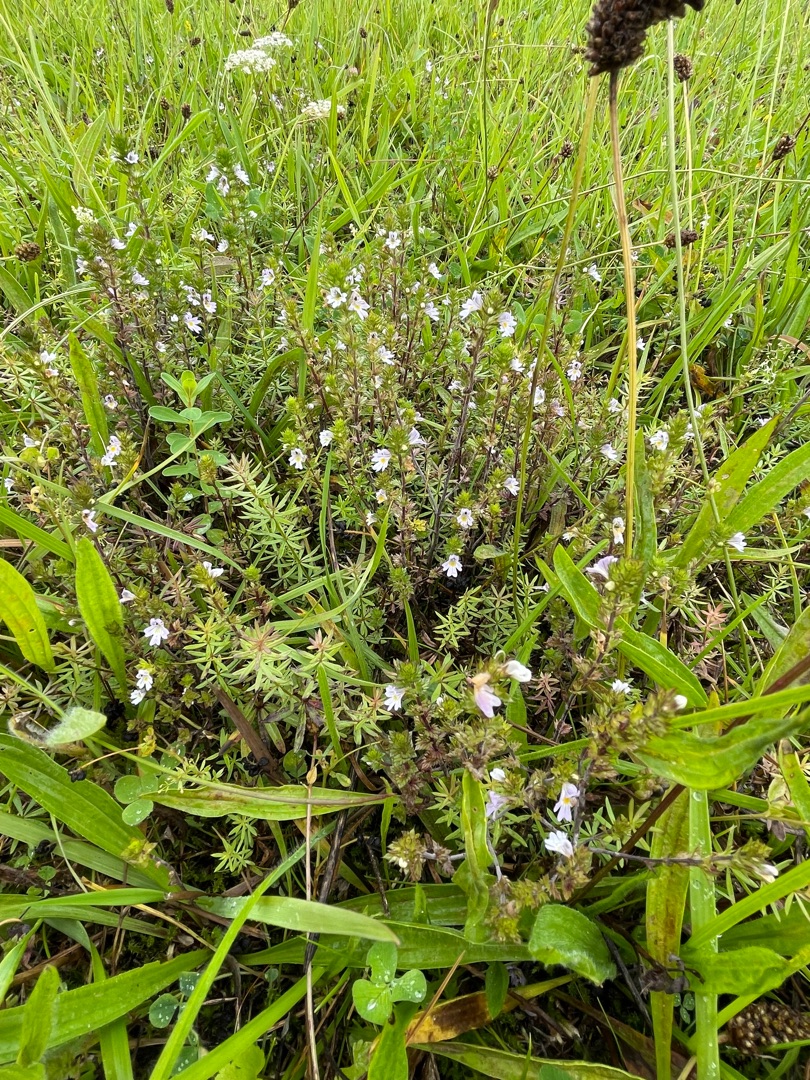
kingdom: Plantae
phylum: Tracheophyta
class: Magnoliopsida
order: Lamiales
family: Orobanchaceae
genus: Euphrasia
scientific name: Euphrasia stricta
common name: Spids øjentrøst
